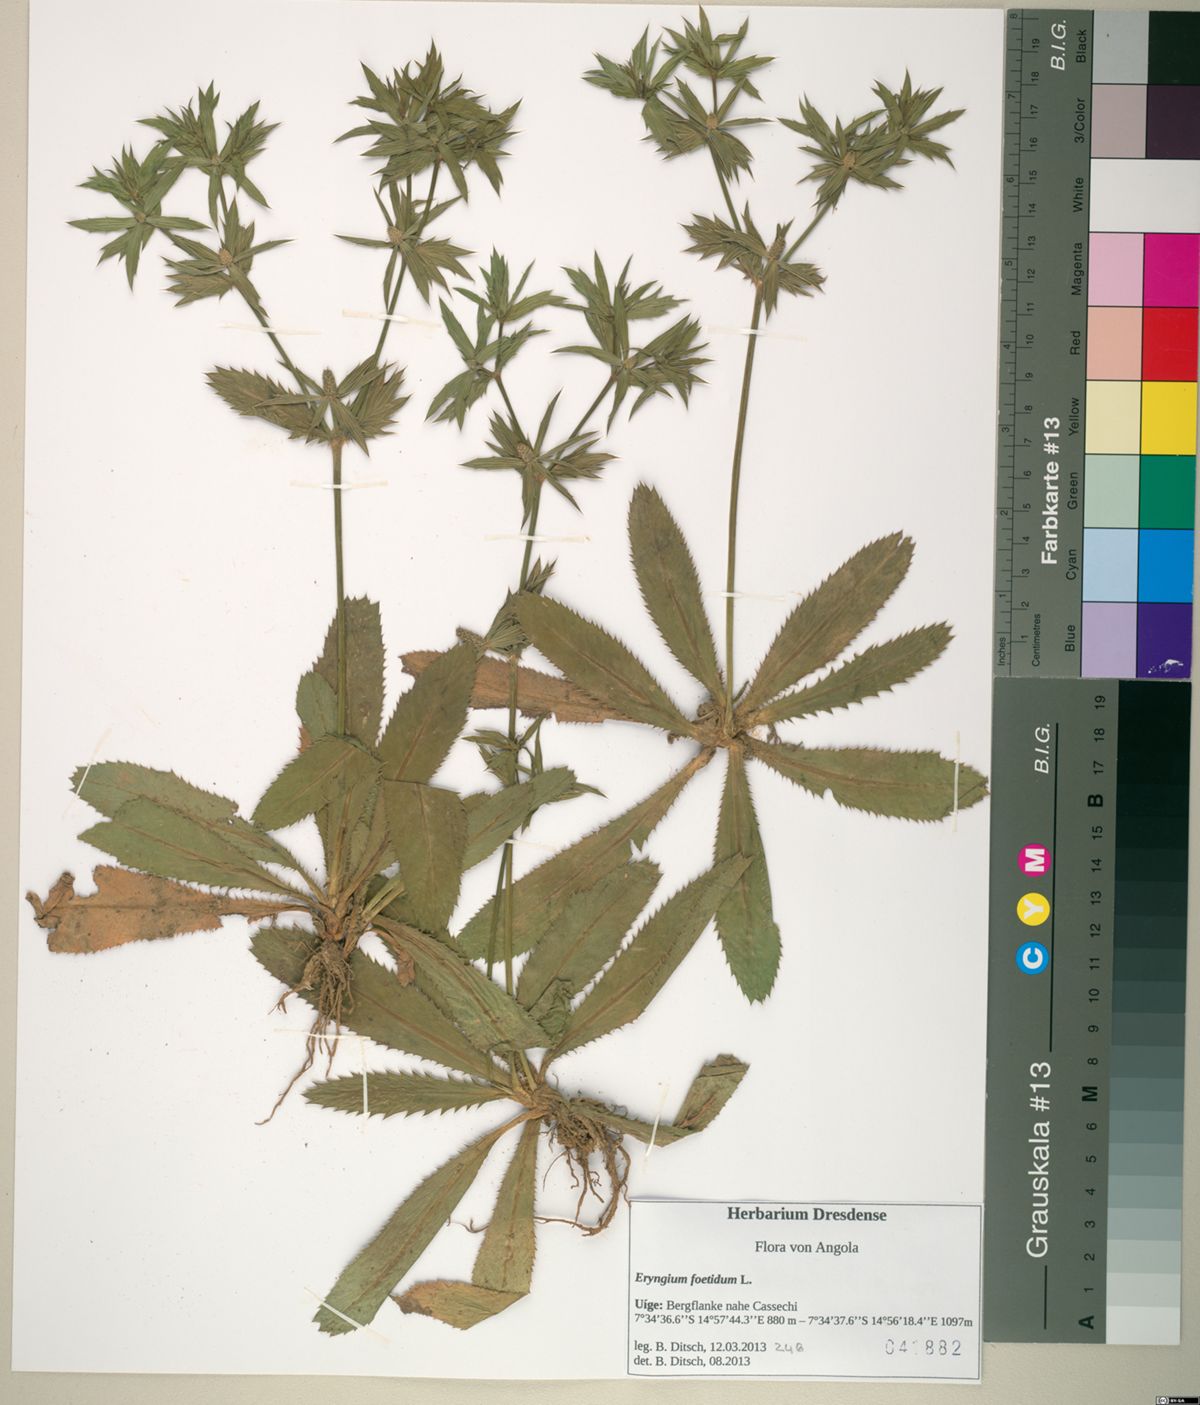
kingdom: Plantae
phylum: Tracheophyta
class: Magnoliopsida
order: Apiales
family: Apiaceae
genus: Eryngium
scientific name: Eryngium foetidum
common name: Fitweed
